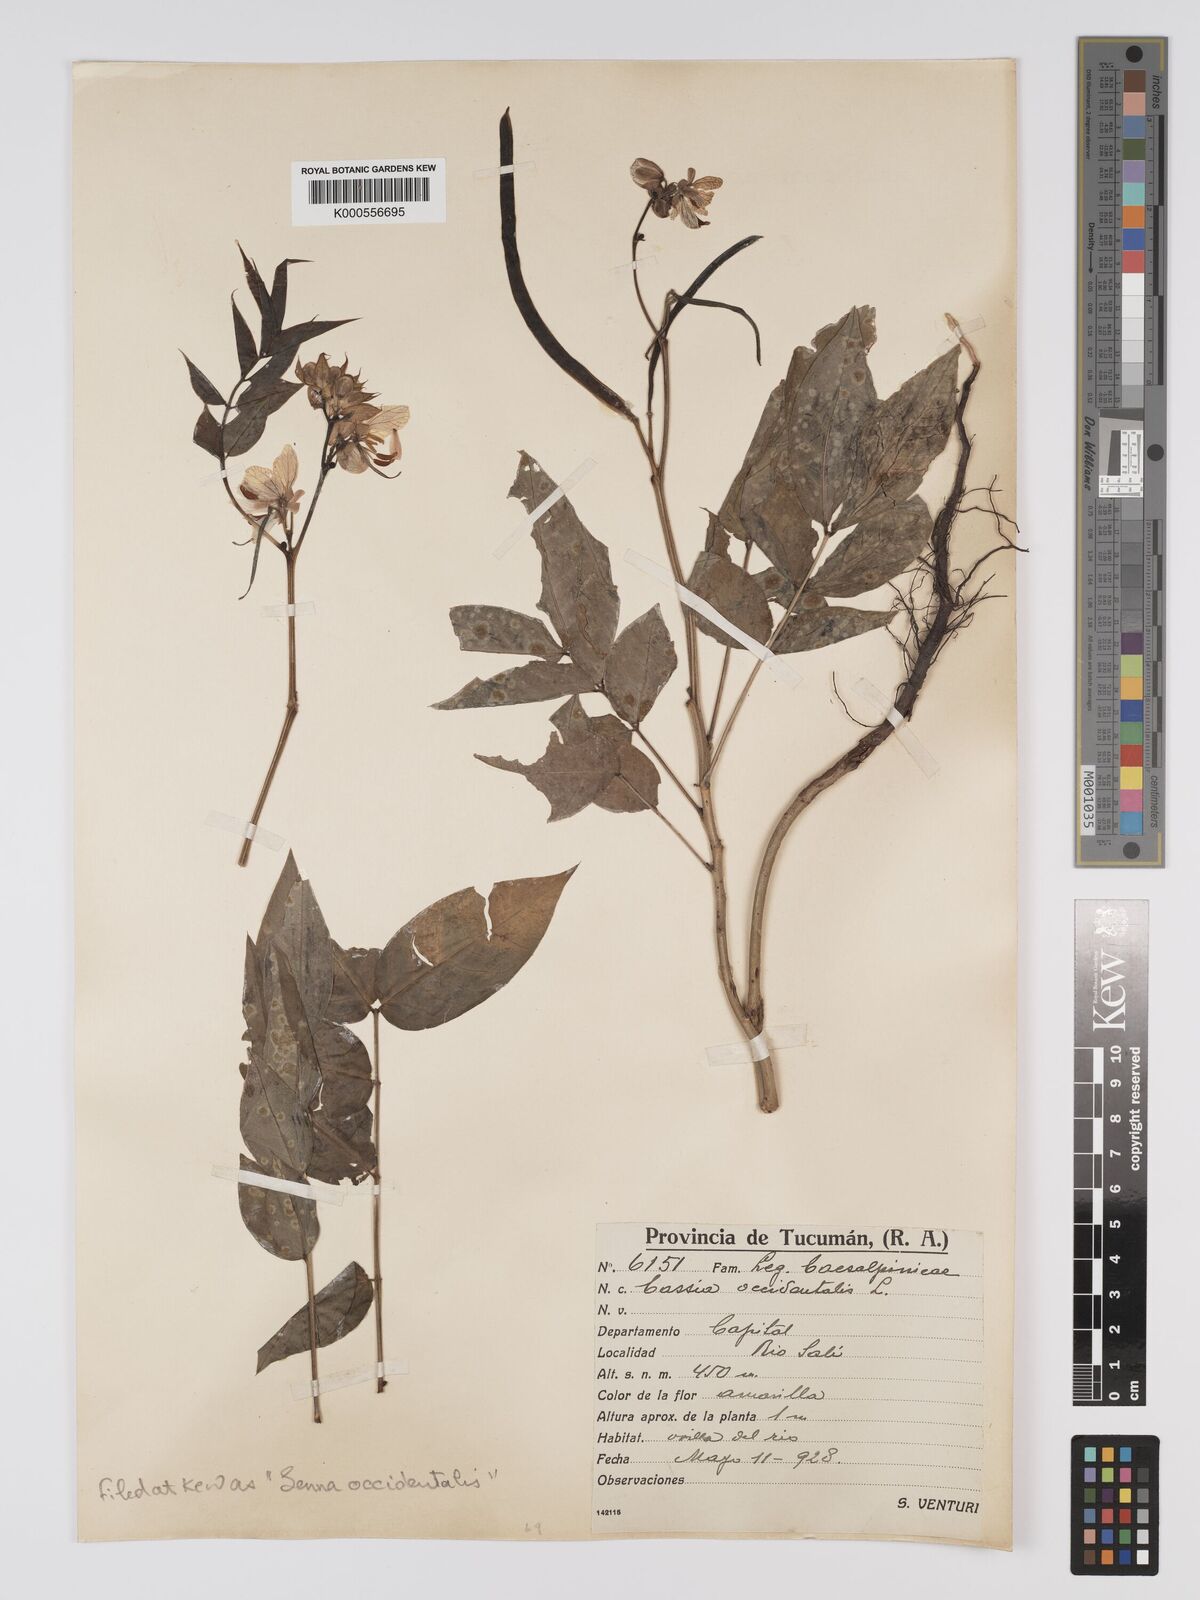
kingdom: Plantae
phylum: Tracheophyta
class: Magnoliopsida
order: Fabales
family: Fabaceae
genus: Senna
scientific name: Senna occidentalis
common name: Septicweed
